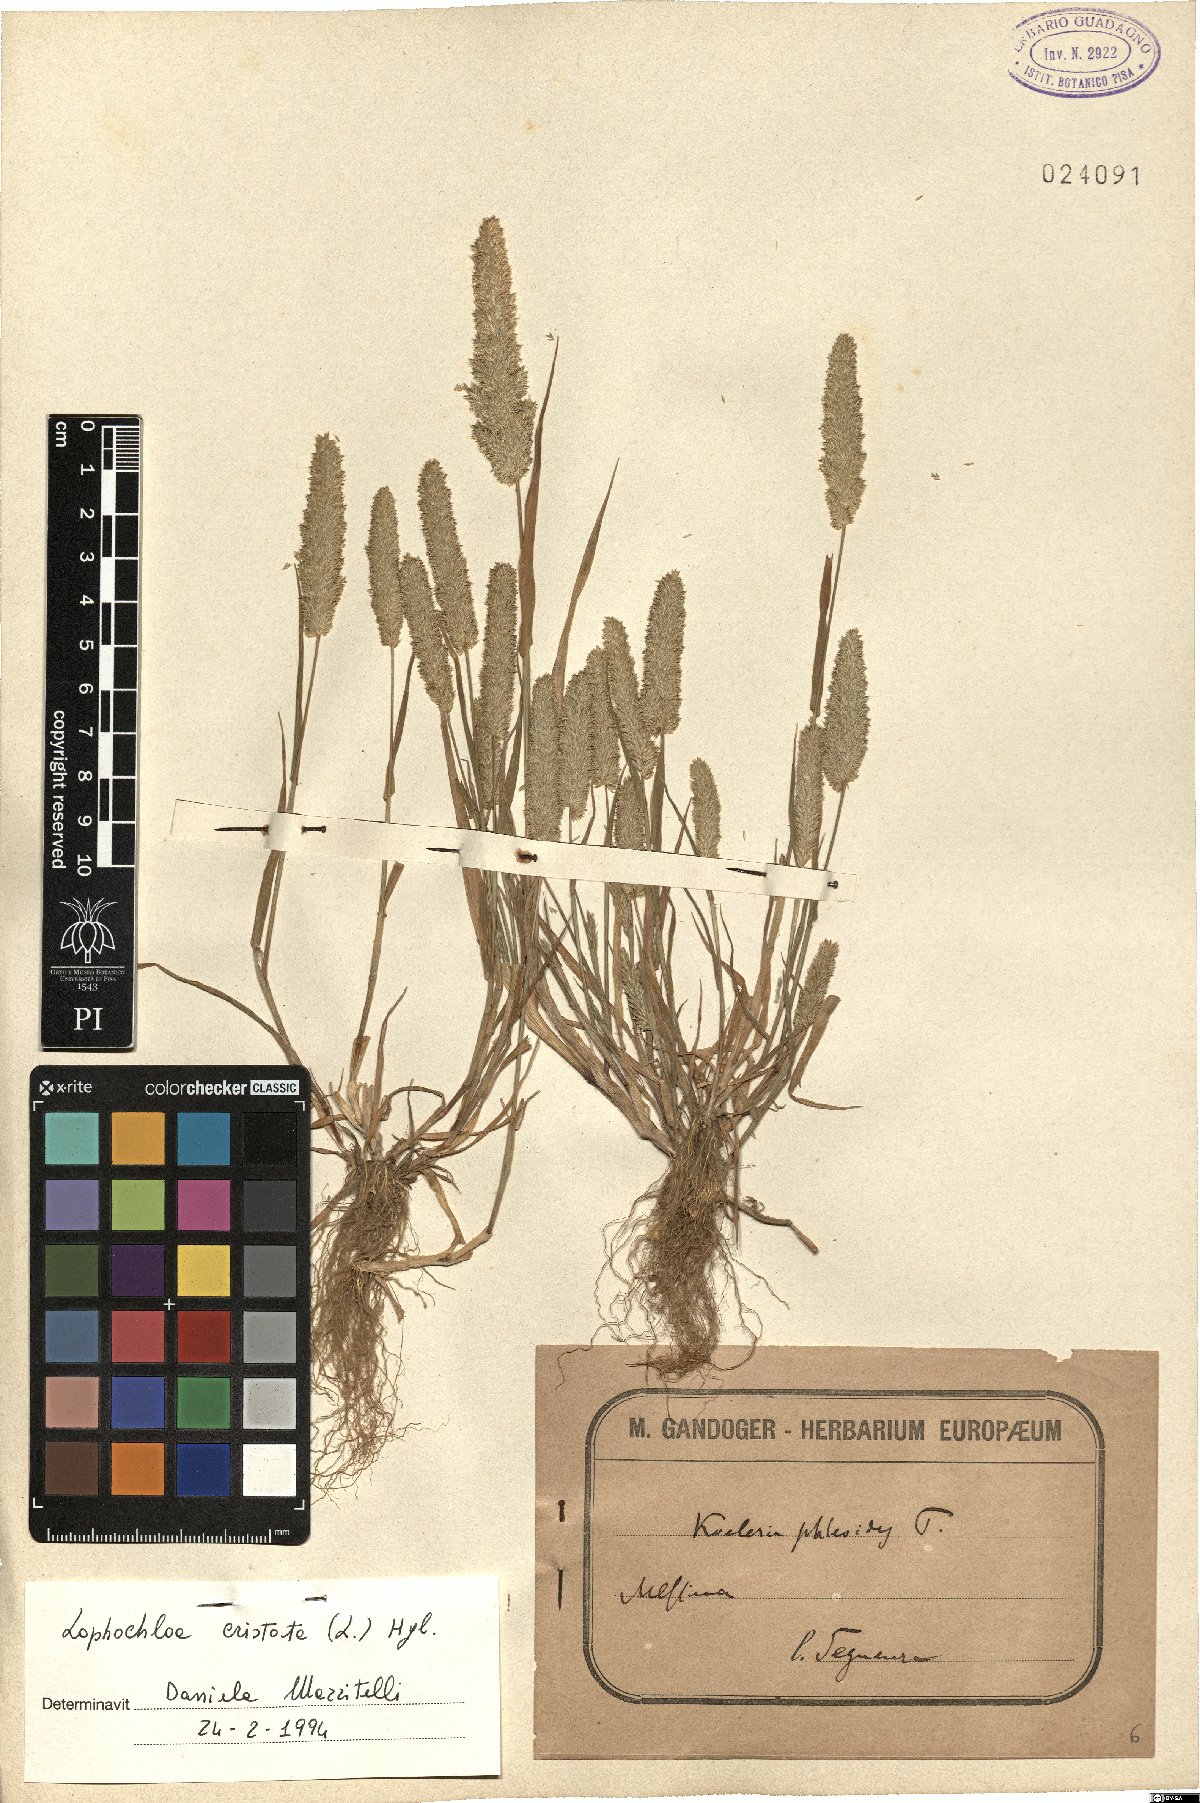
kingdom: Plantae
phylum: Tracheophyta
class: Liliopsida
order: Poales
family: Poaceae
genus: Rostraria
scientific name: Rostraria cristata
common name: Mediterranean hair-grass
